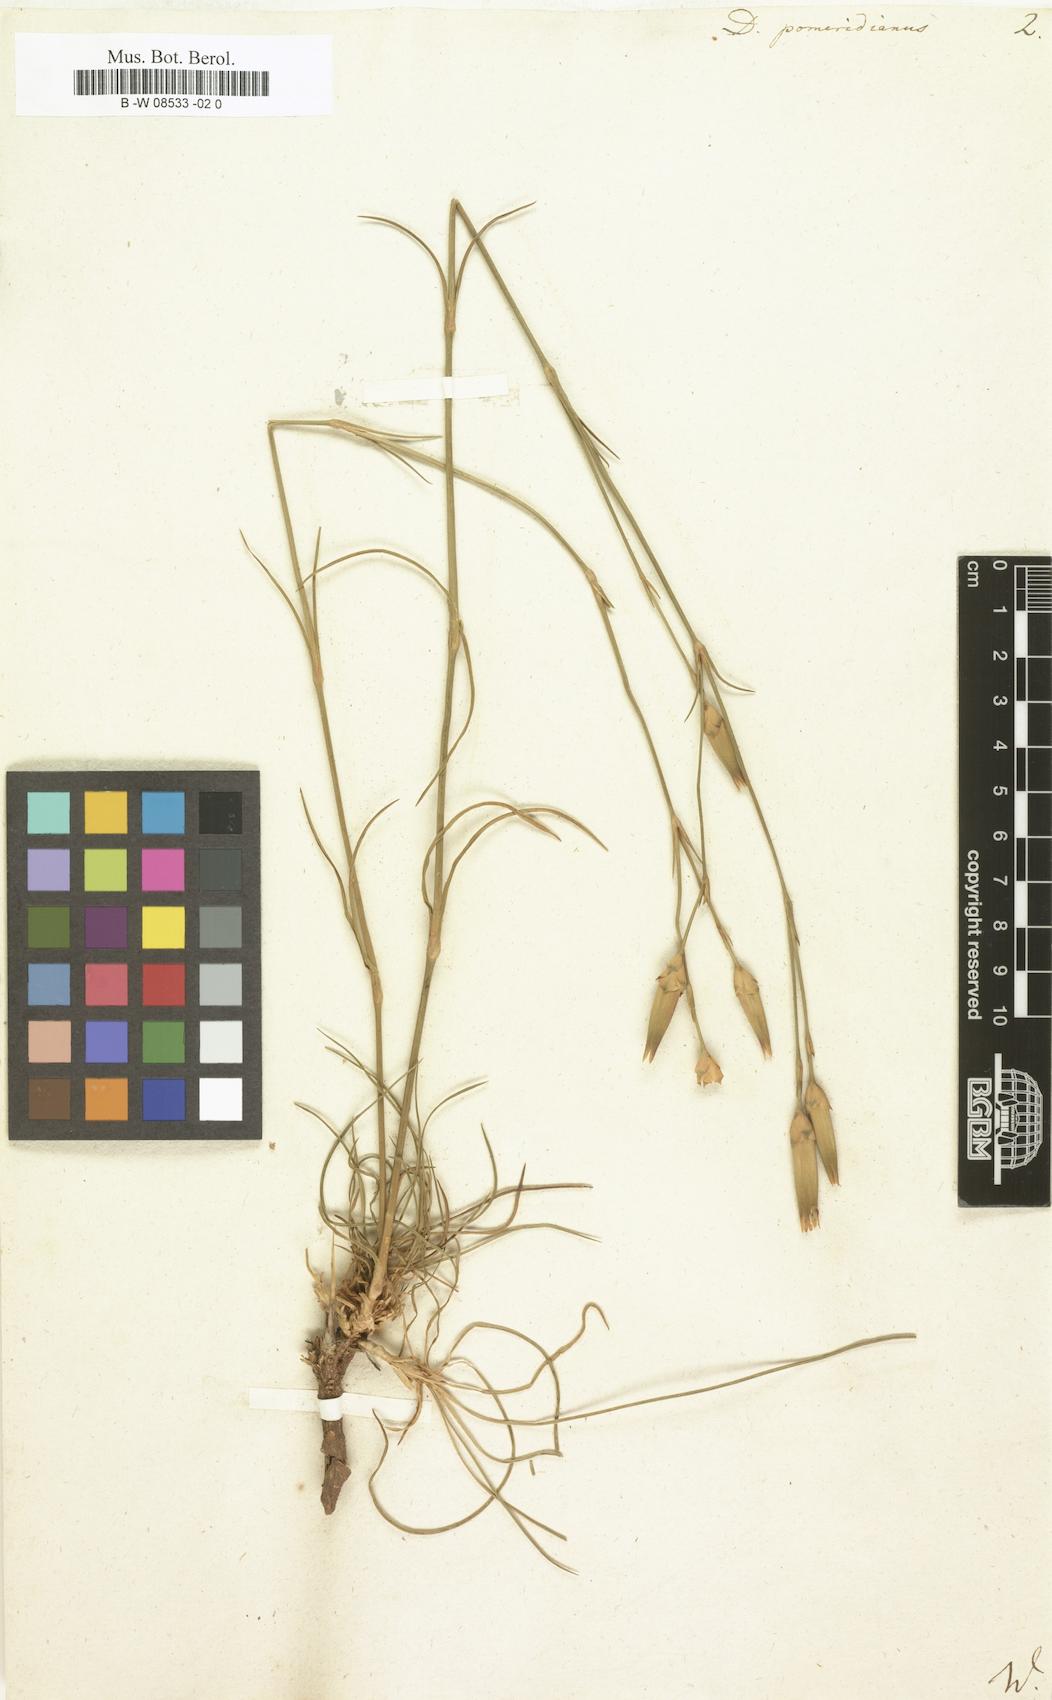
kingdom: Plantae
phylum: Tracheophyta
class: Magnoliopsida
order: Caryophyllales
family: Caryophyllaceae
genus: Dianthus
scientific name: Dianthus leptopetalus
